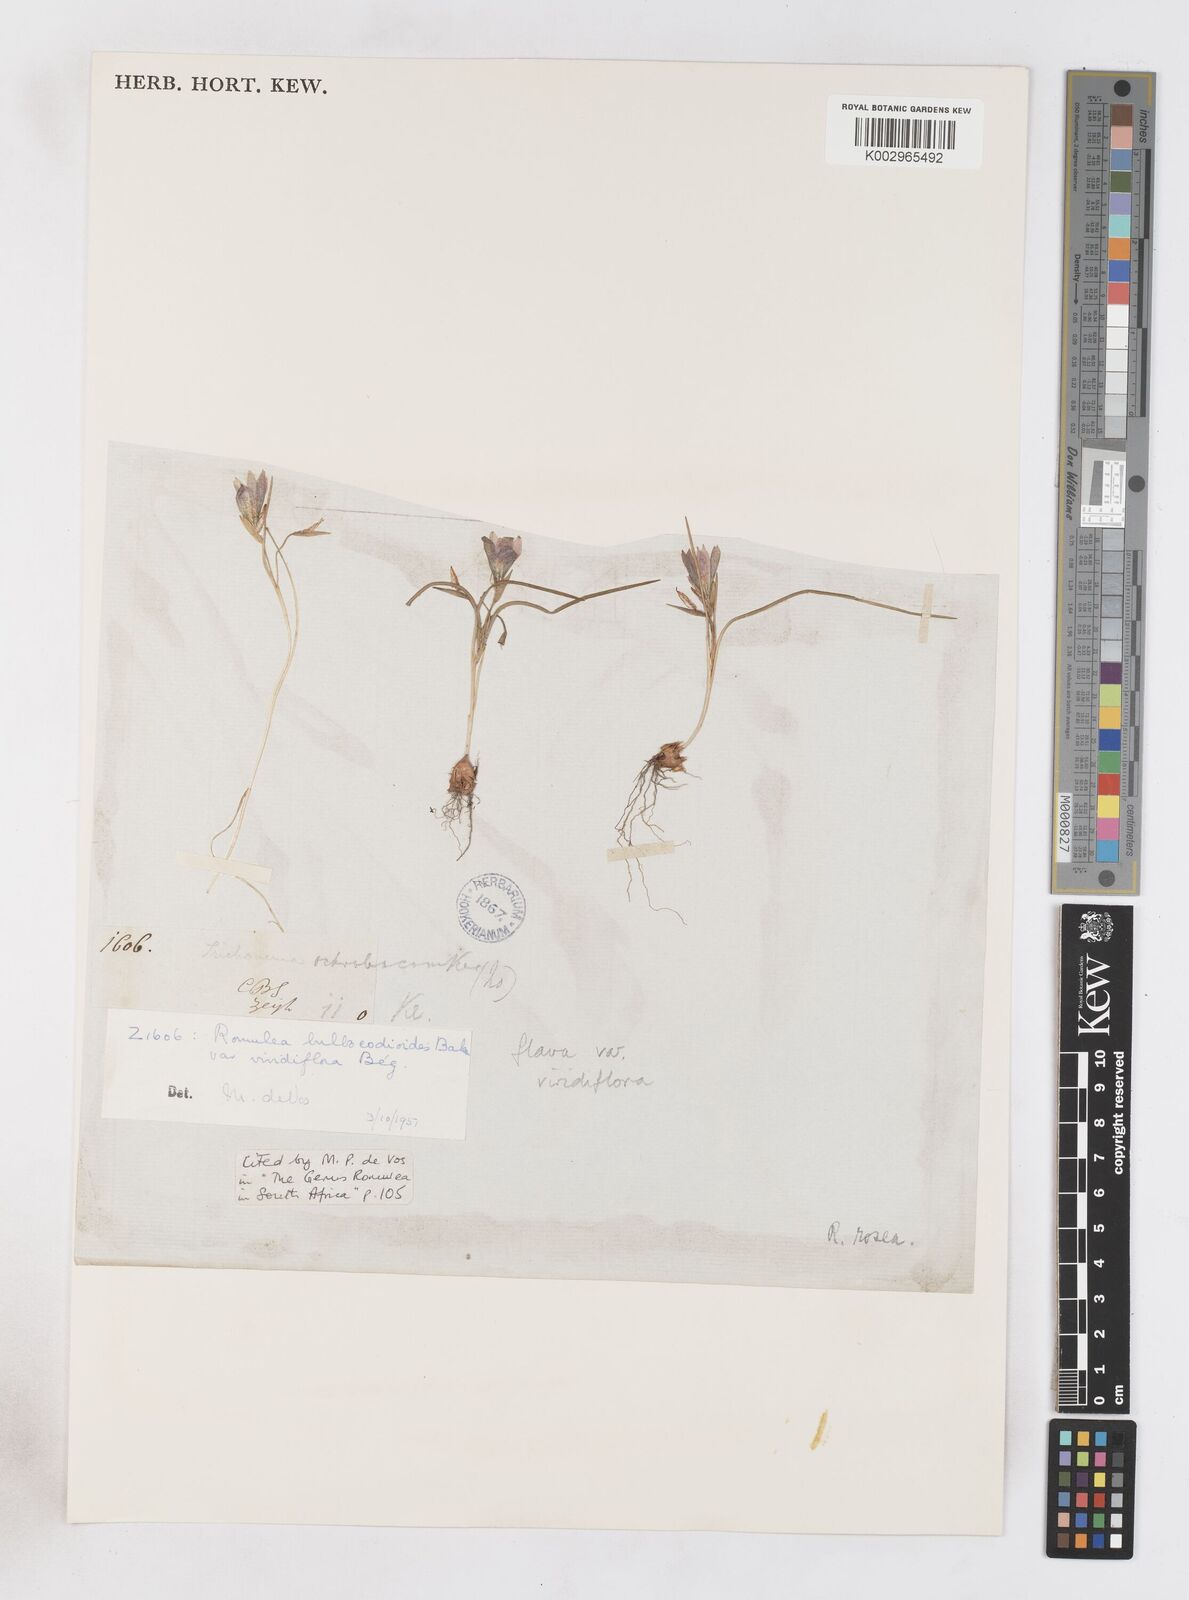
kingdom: Plantae
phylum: Tracheophyta
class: Liliopsida
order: Asparagales
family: Iridaceae
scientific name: Iridaceae
